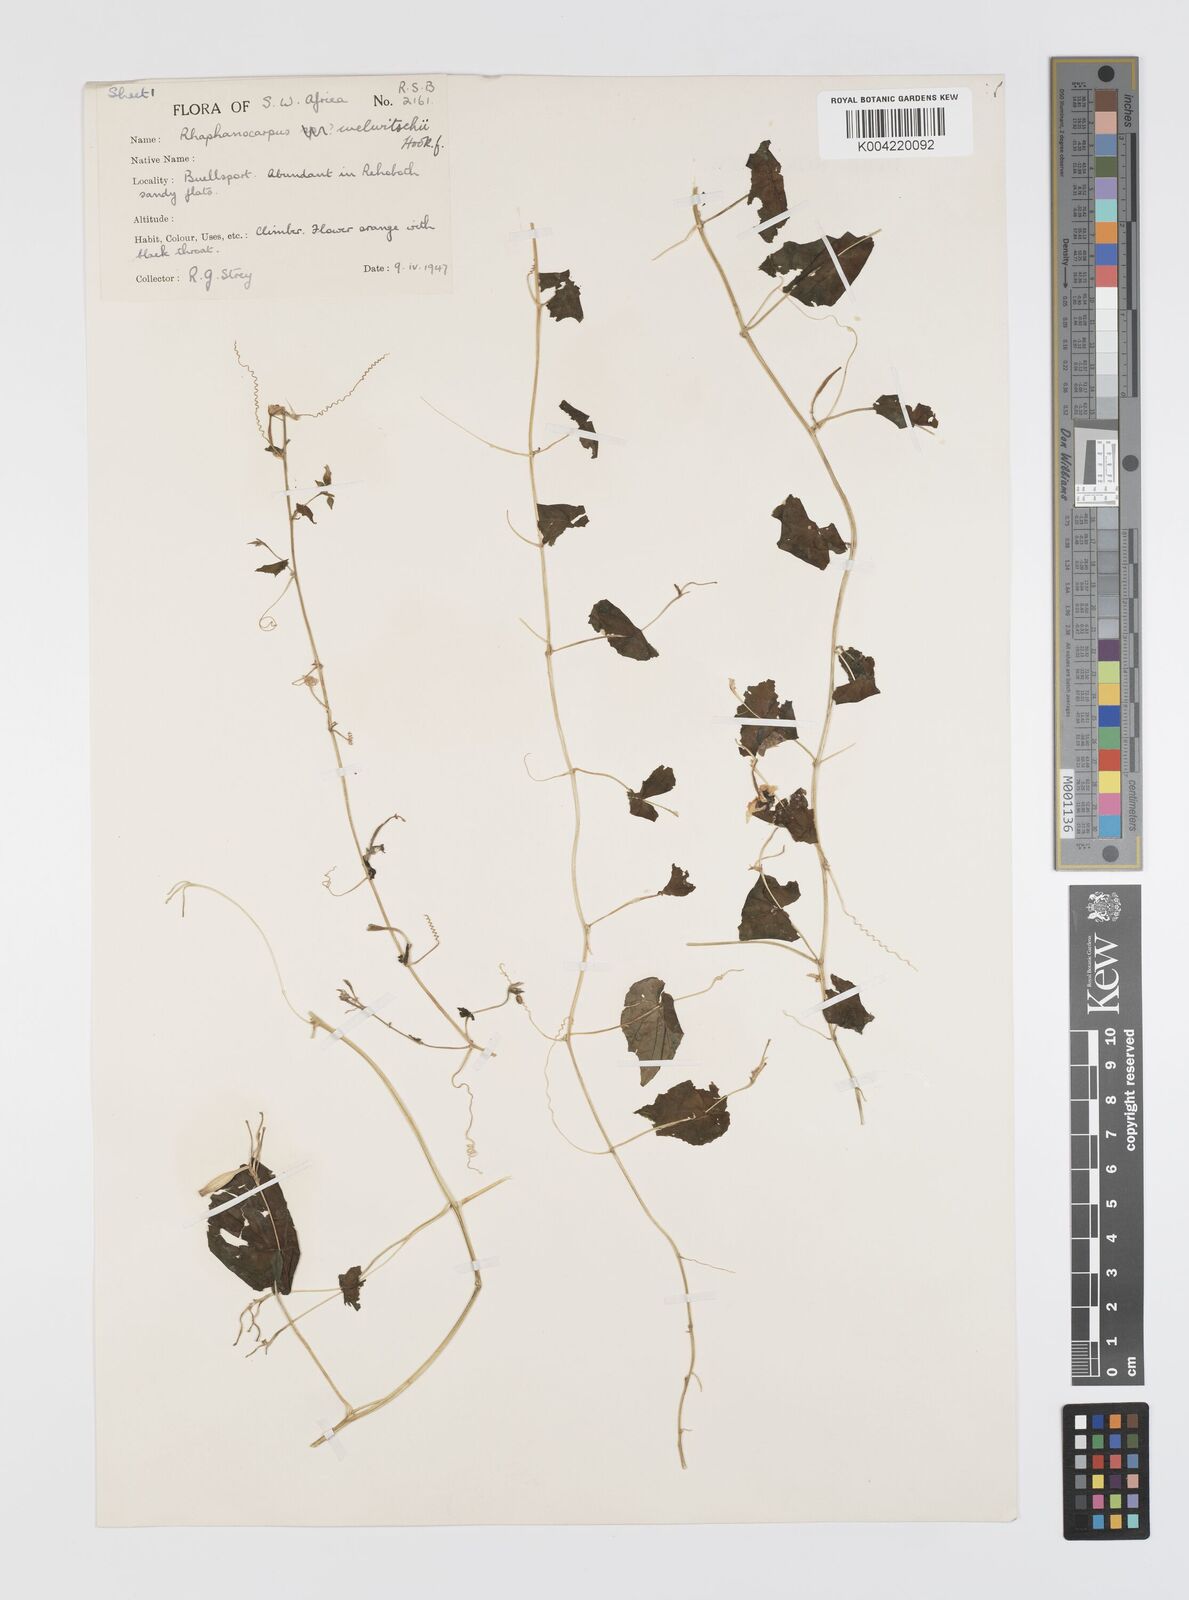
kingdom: Plantae
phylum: Tracheophyta
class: Magnoliopsida
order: Cucurbitales
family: Cucurbitaceae
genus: Momordica
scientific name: Momordica
